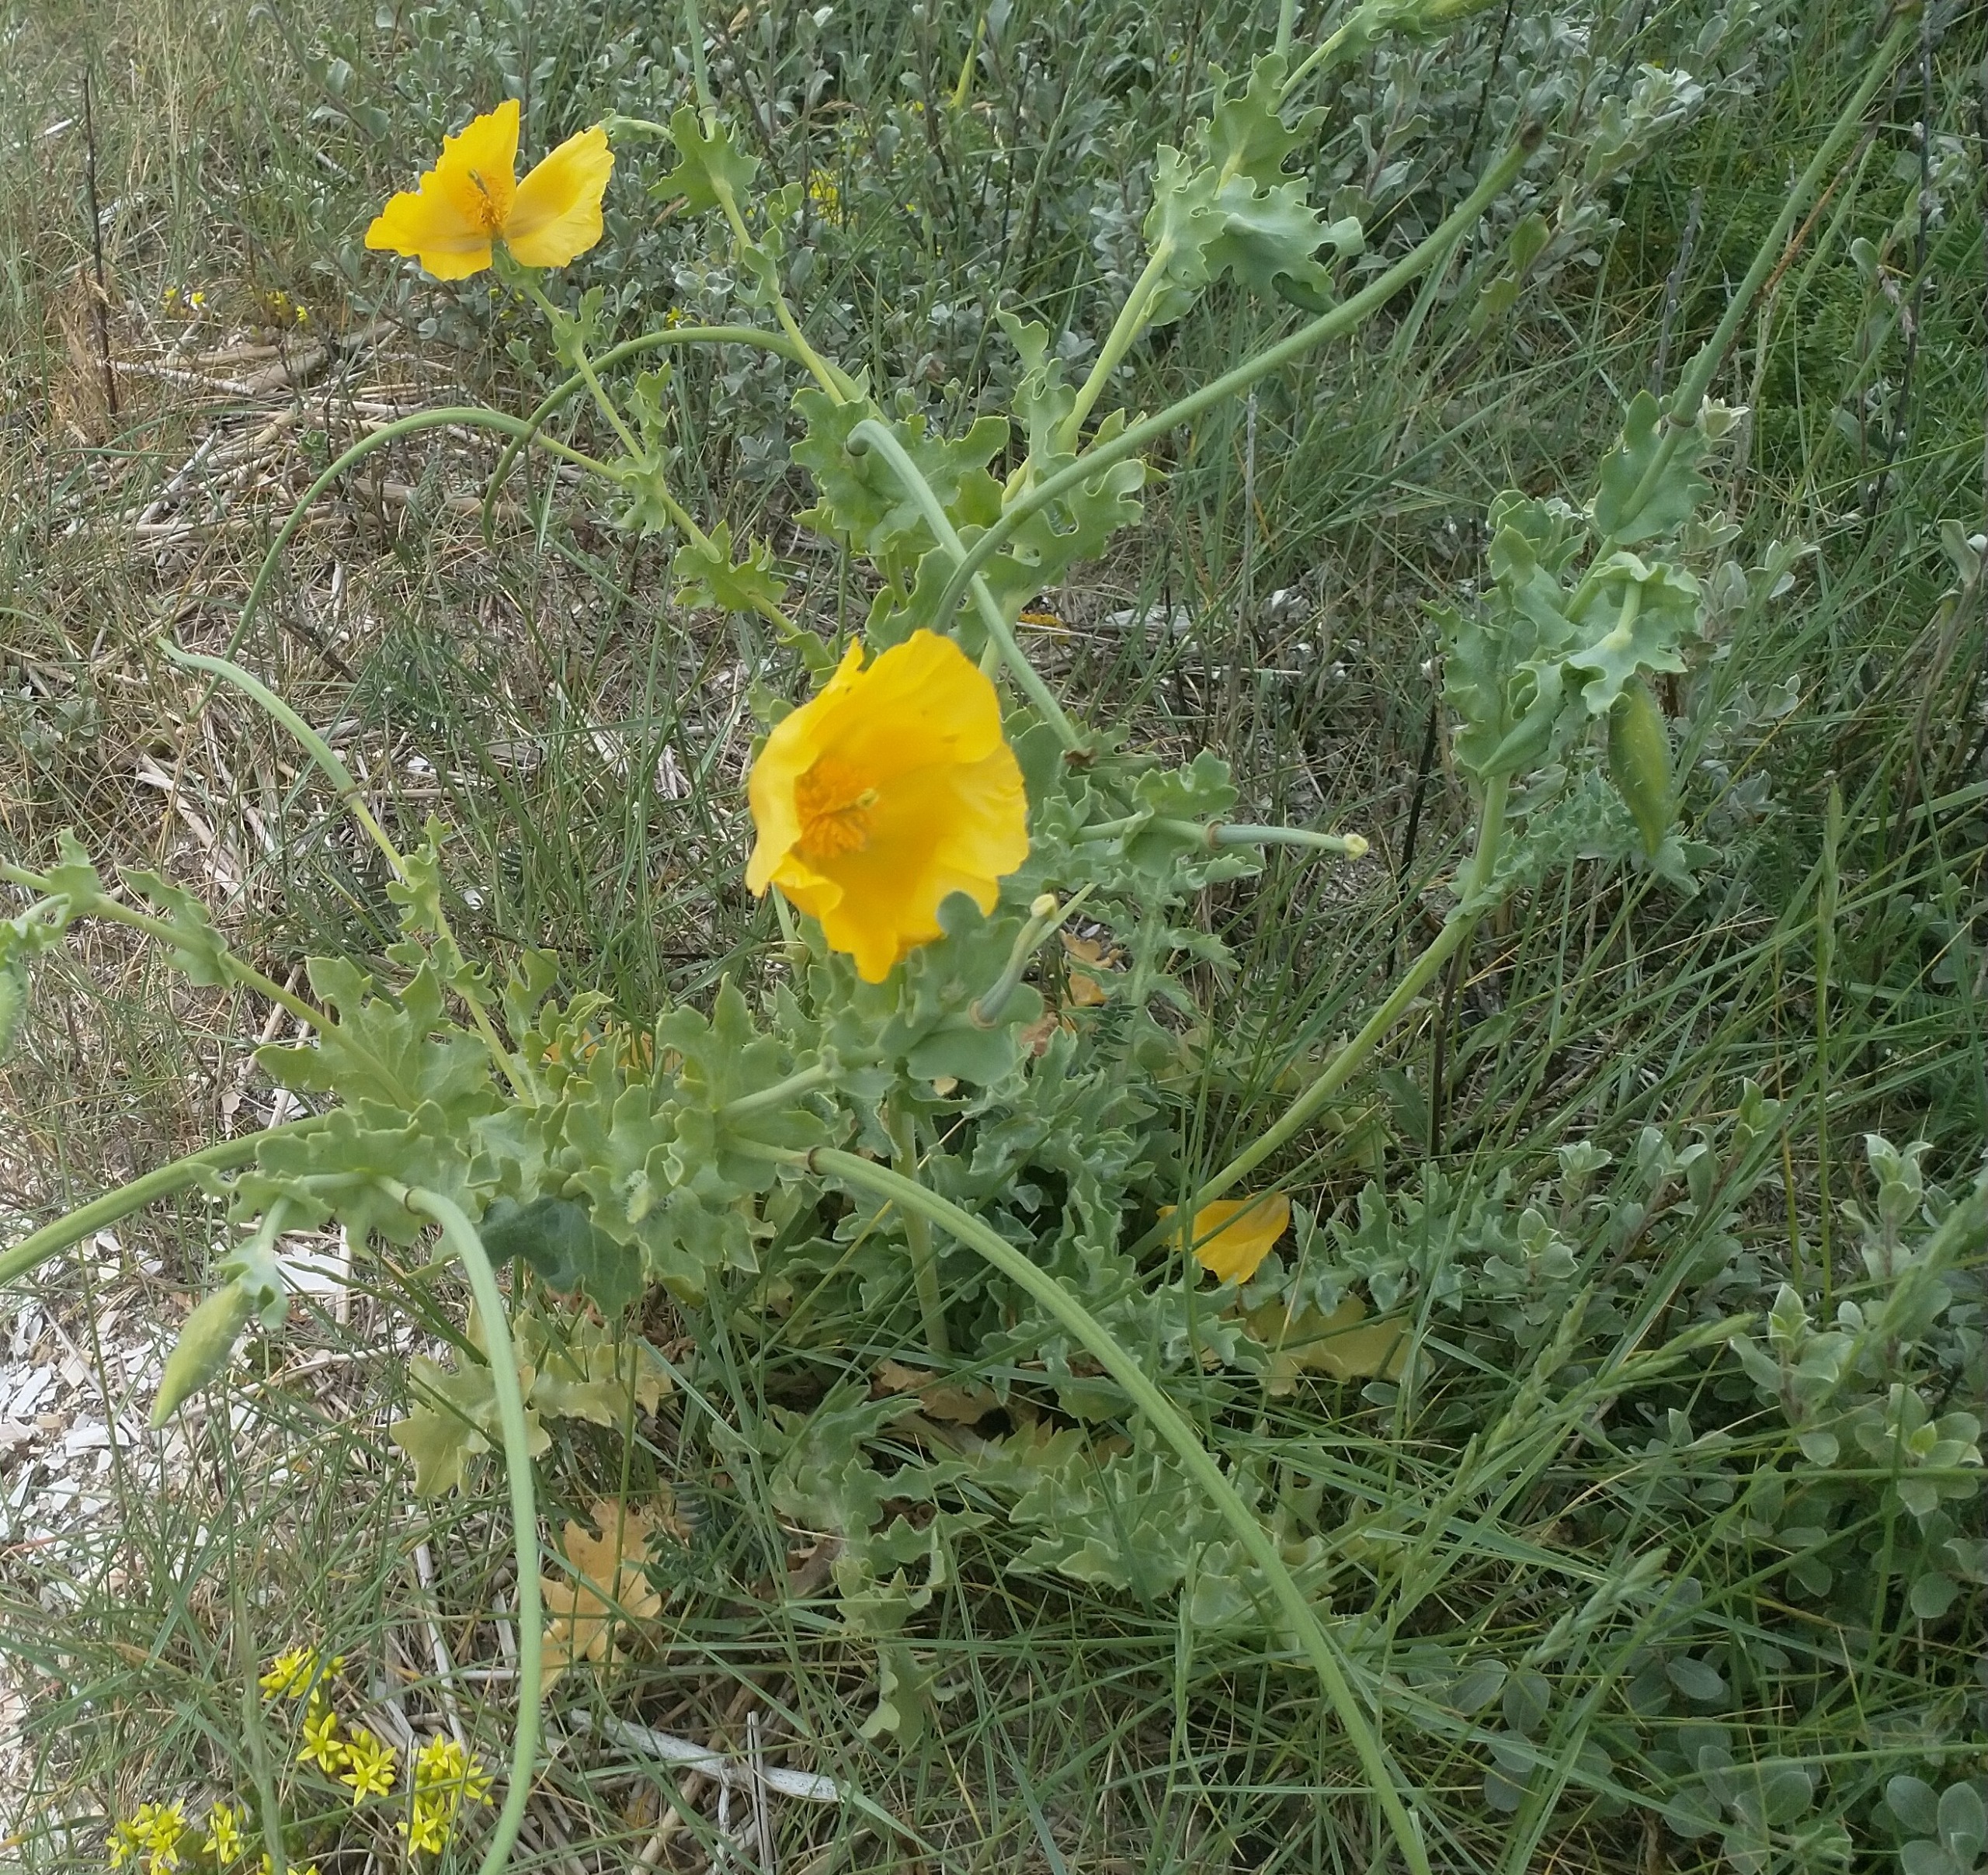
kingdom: Plantae
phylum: Tracheophyta
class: Magnoliopsida
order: Ranunculales
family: Papaveraceae
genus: Glaucium
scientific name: Glaucium flavum
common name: Hornskulpe
